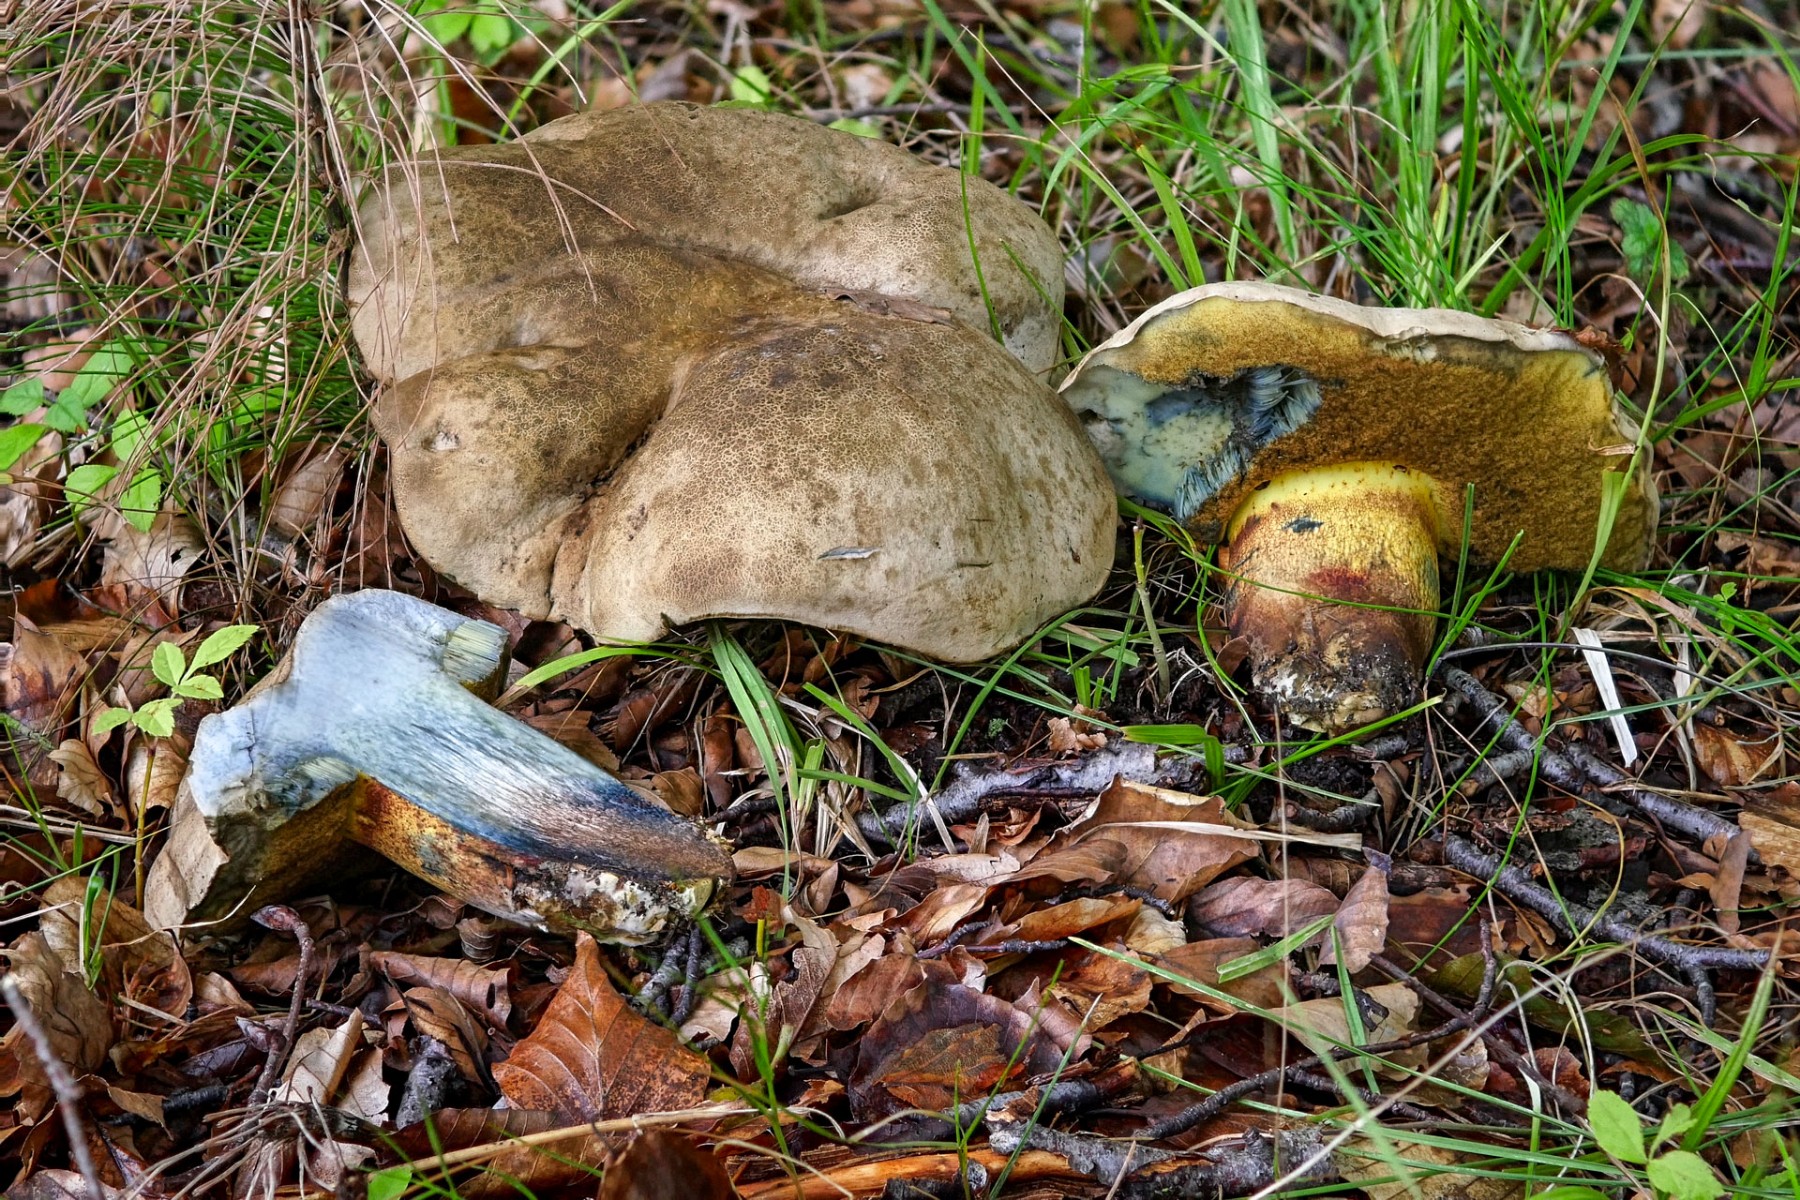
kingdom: Fungi
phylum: Basidiomycota
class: Agaricomycetes
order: Boletales
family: Boletaceae
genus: Caloboletus
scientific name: Caloboletus calopus
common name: skønfodet rørhat
